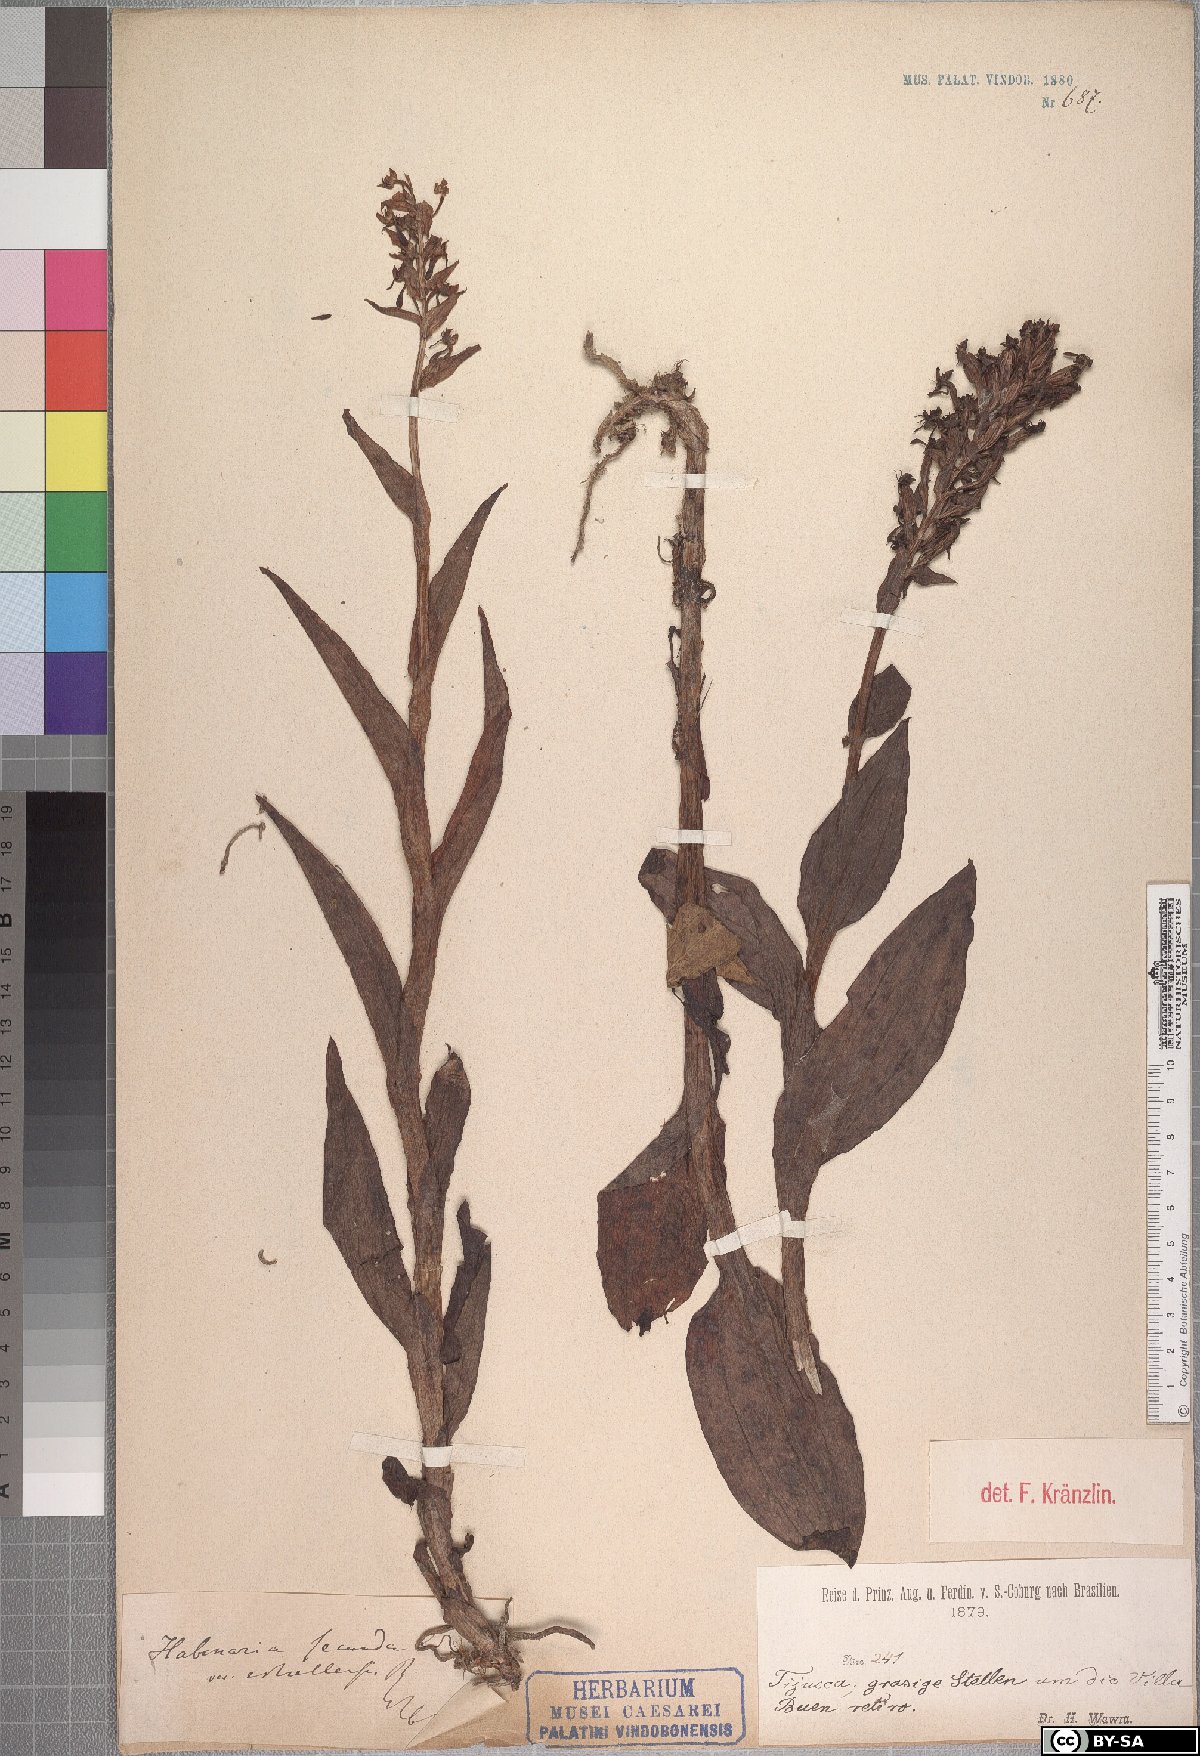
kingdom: Plantae
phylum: Tracheophyta
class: Liliopsida
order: Asparagales
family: Orchidaceae
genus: Habenaria
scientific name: Habenaria secunda
